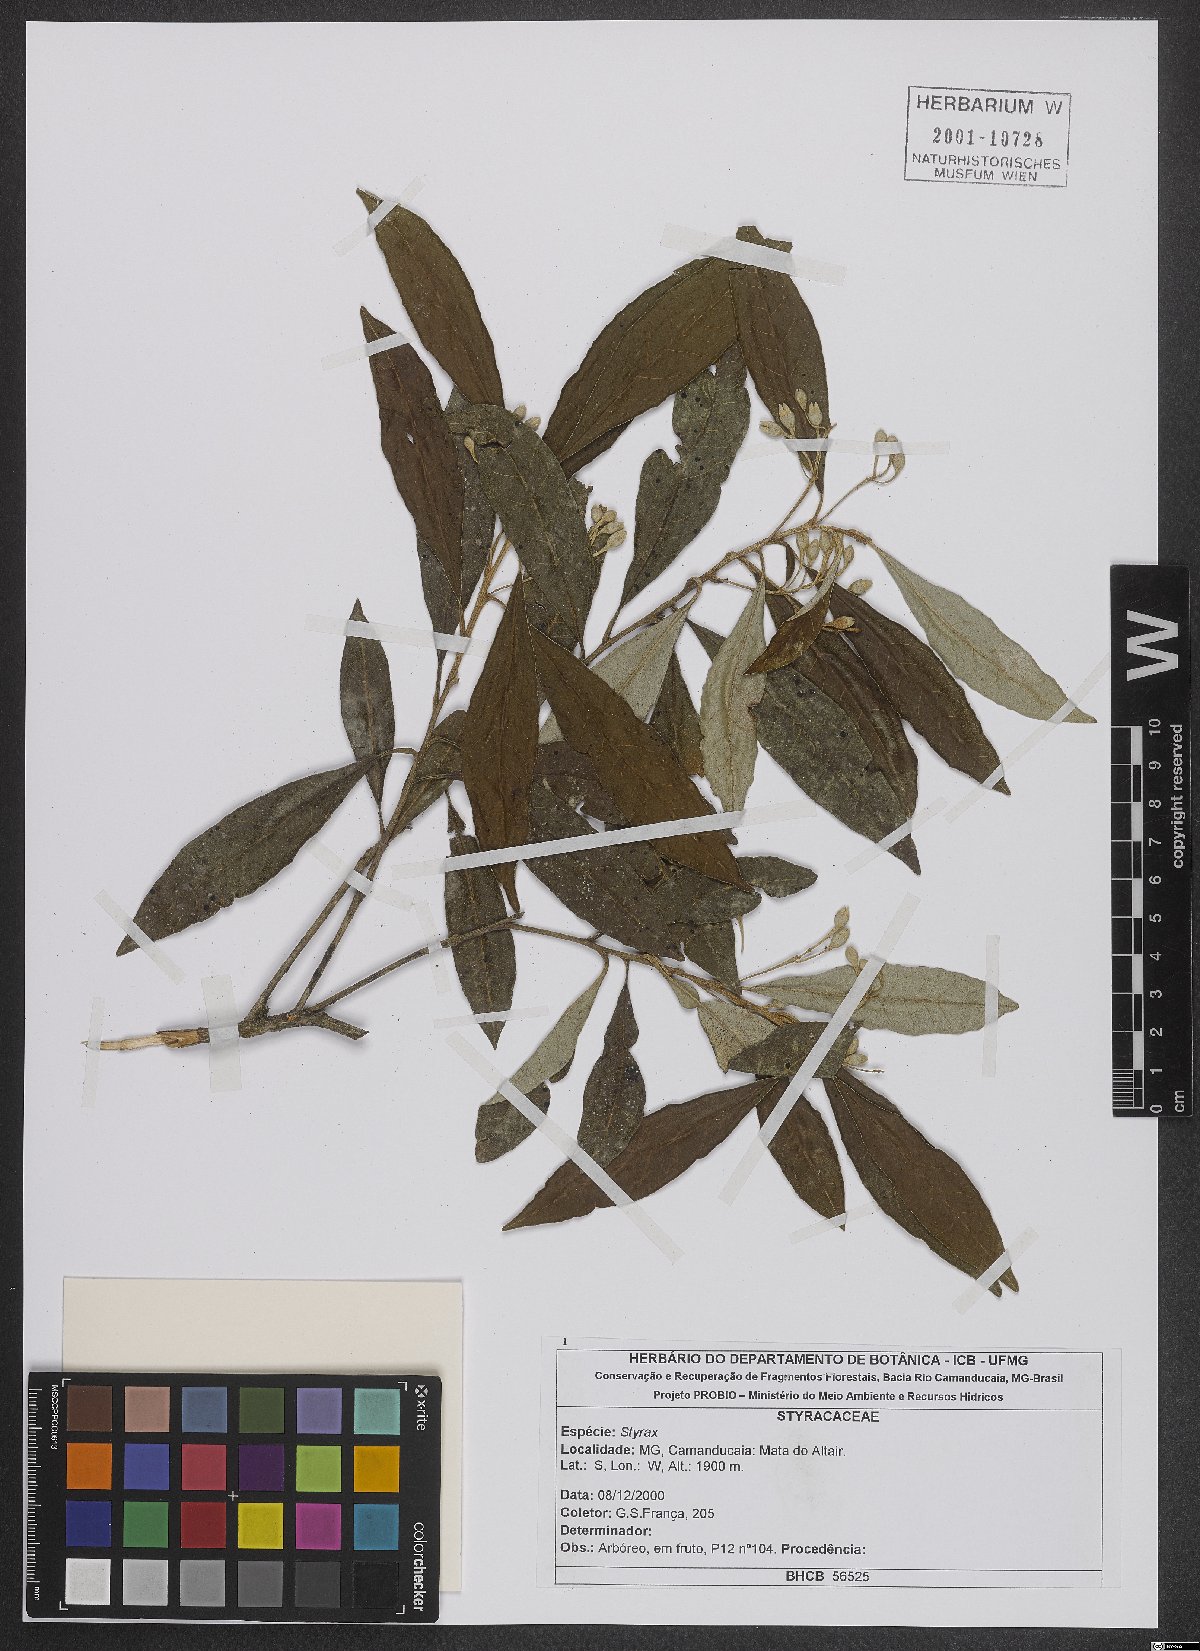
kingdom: Plantae
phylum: Tracheophyta
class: Magnoliopsida
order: Ericales
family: Styracaceae
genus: Styrax
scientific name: Styrax
